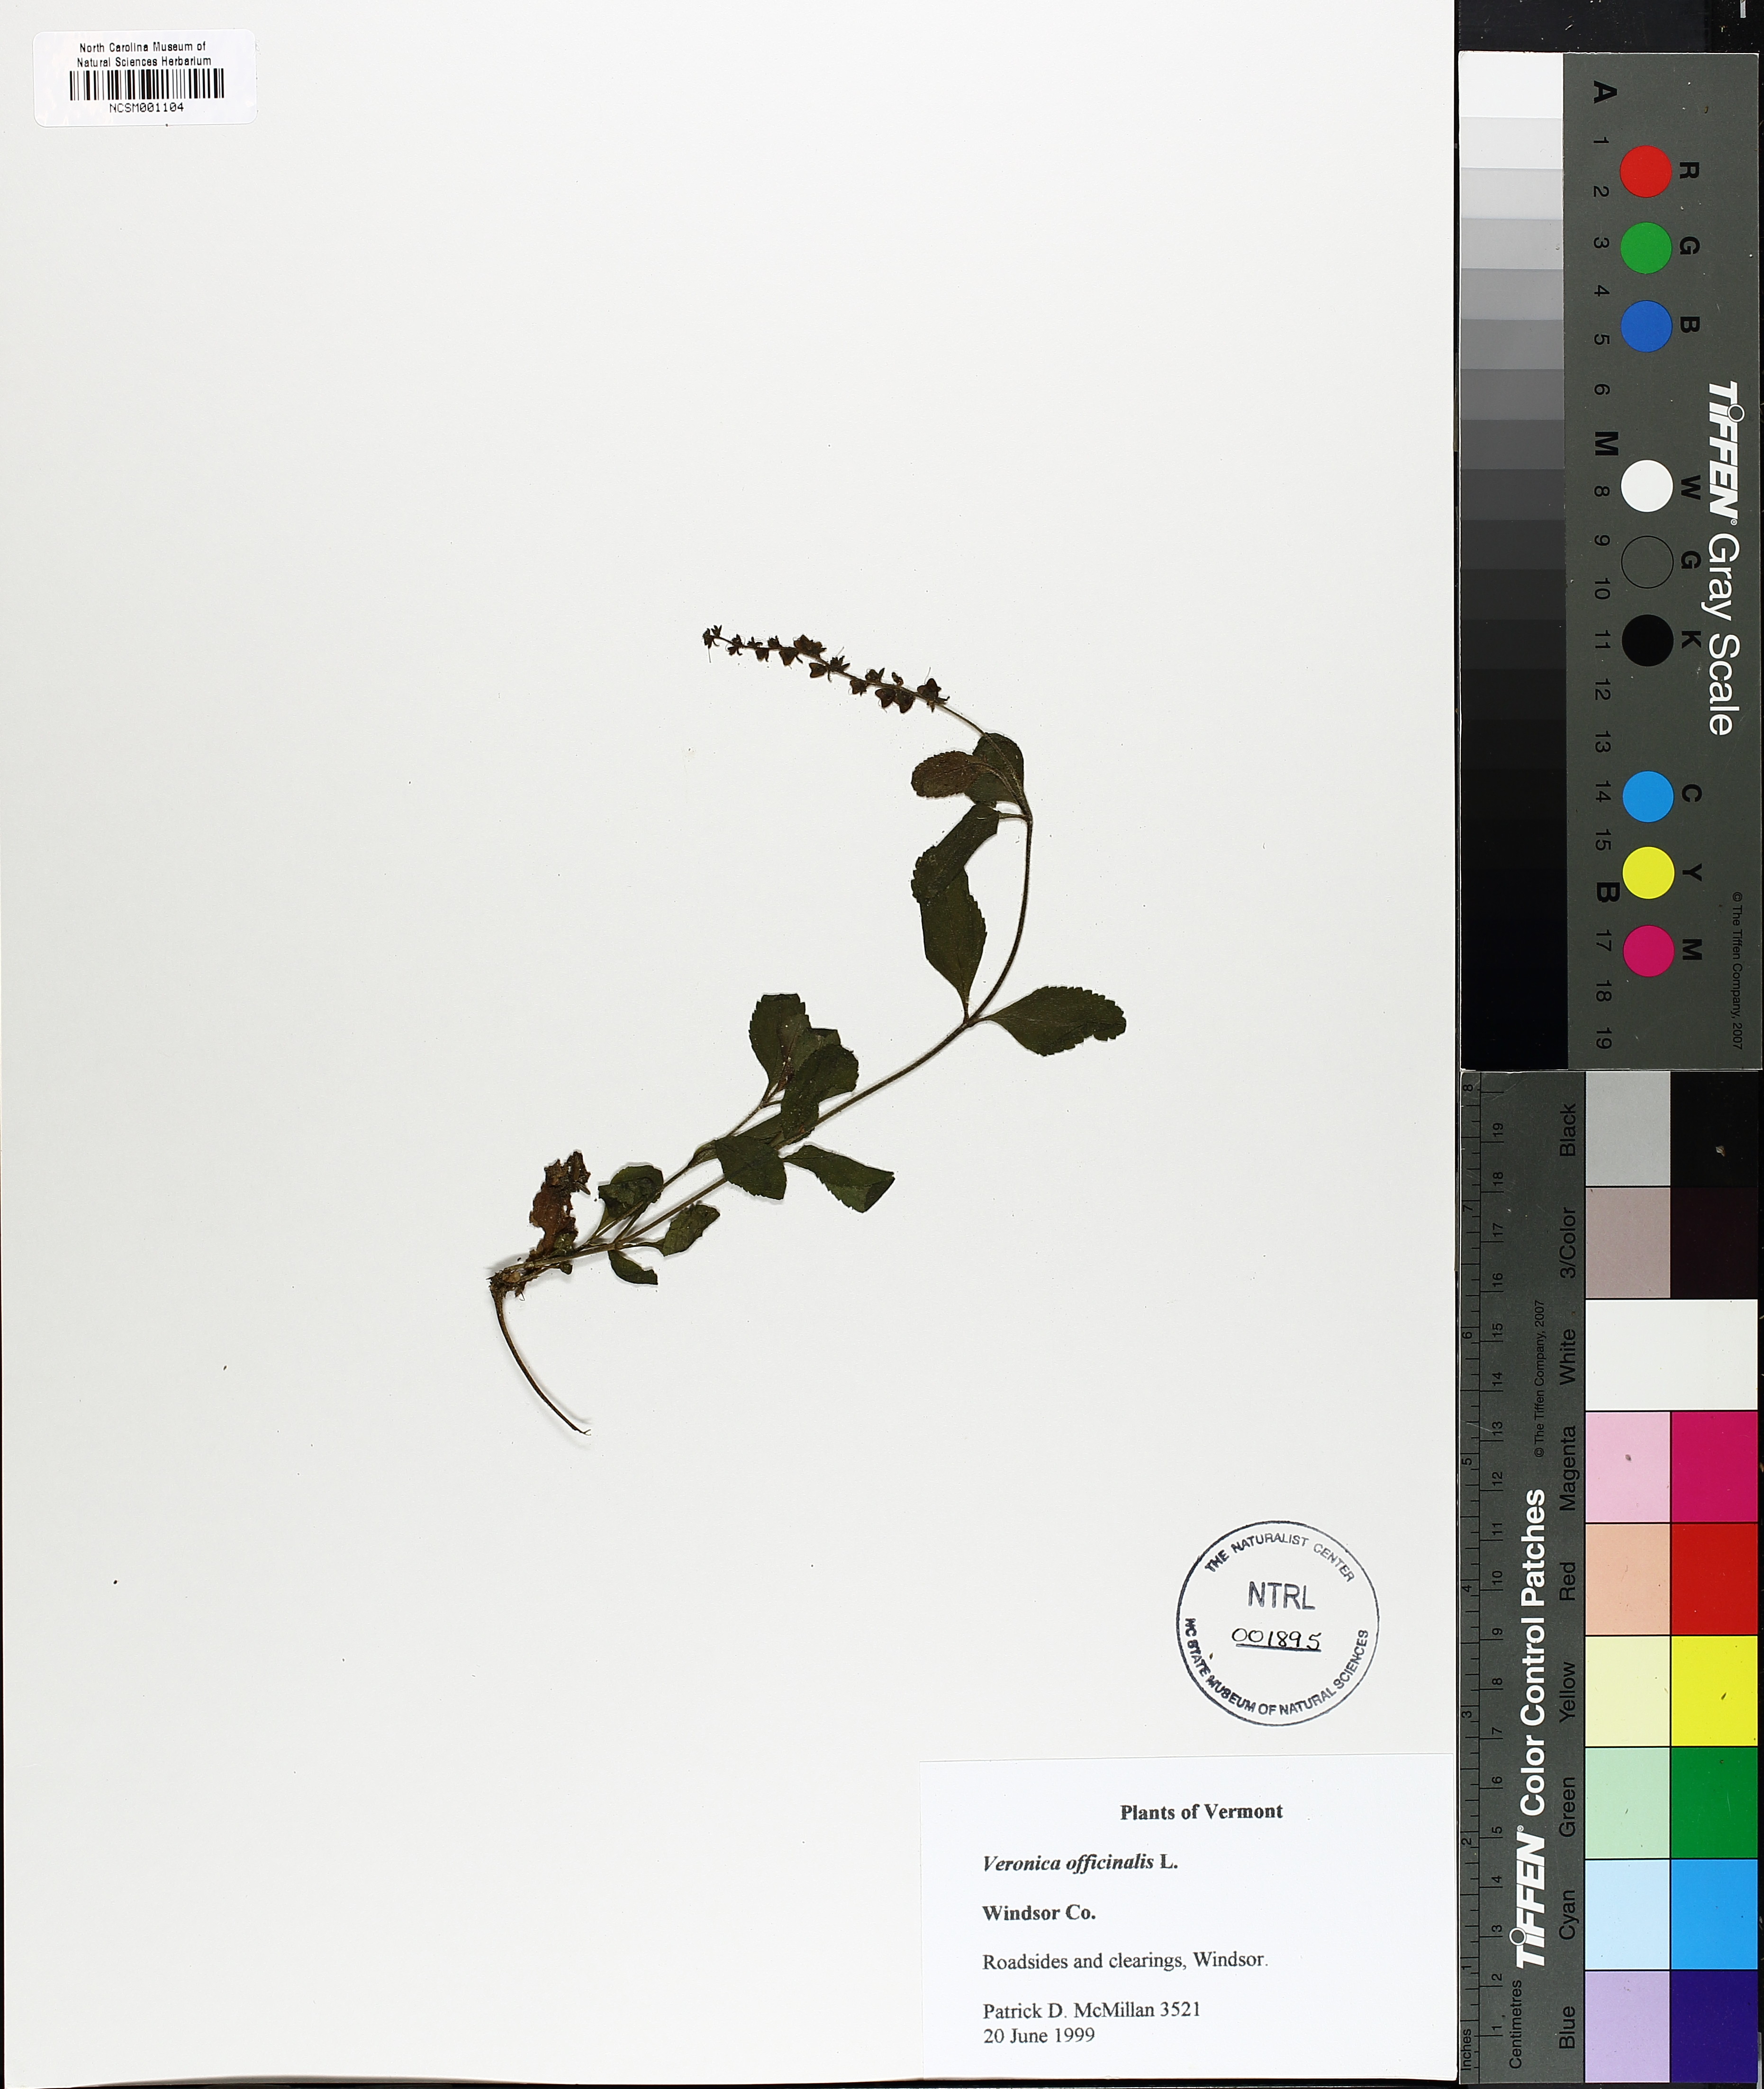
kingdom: Plantae
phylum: Tracheophyta
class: Magnoliopsida
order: Lamiales
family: Plantaginaceae
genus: Veronica
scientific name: Veronica officinalis
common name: Common speedwell
